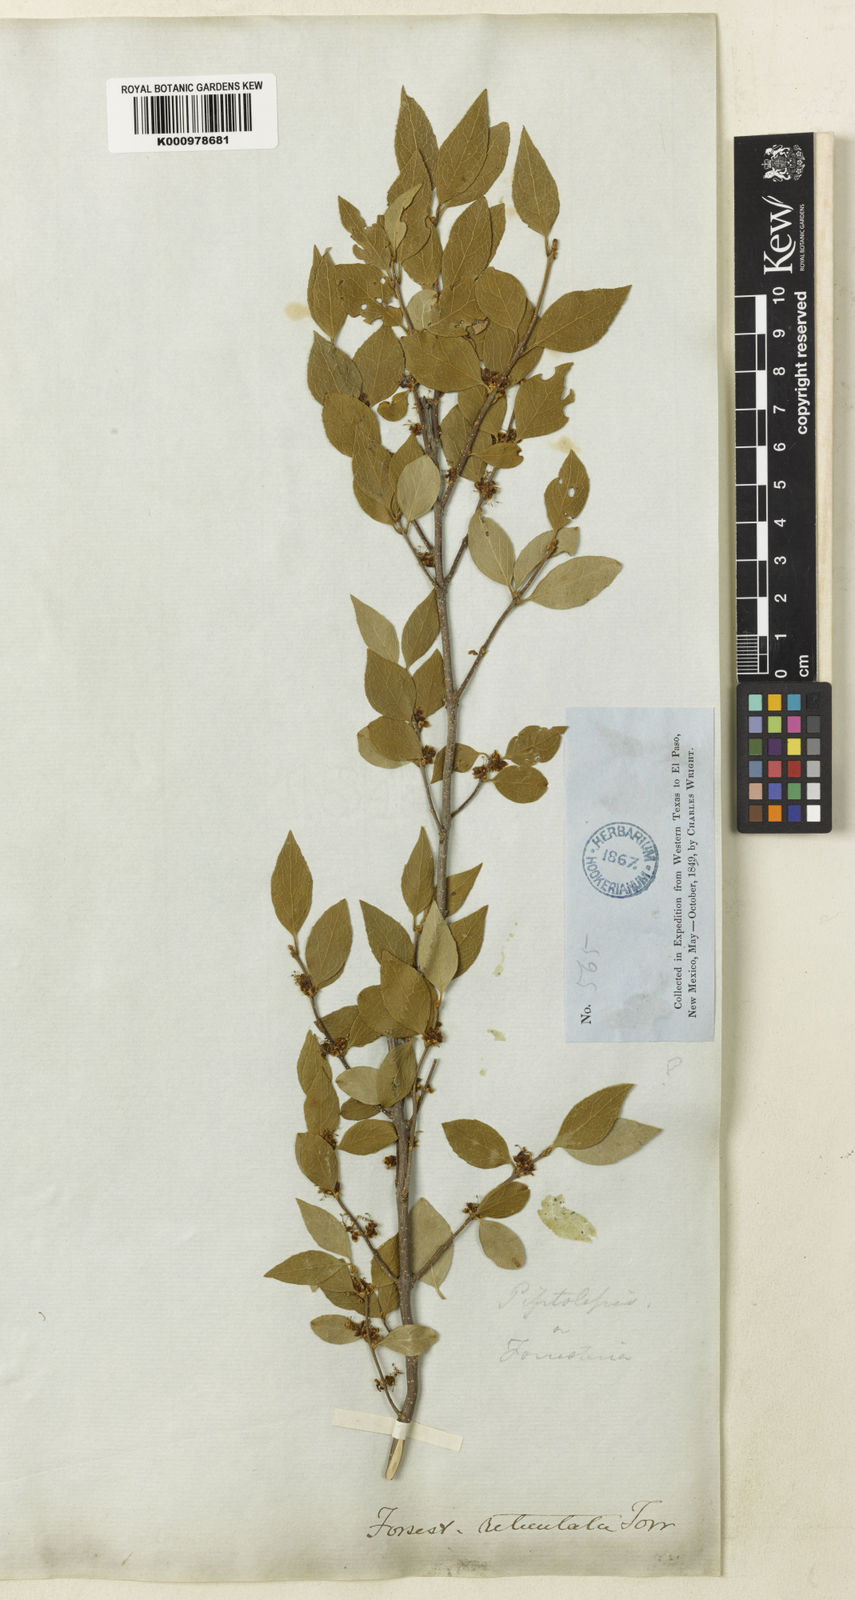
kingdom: Plantae
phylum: Tracheophyta
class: Magnoliopsida
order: Lamiales
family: Oleaceae
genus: Forestiera
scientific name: Forestiera reticulata
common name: Netleaf swamp-privet
